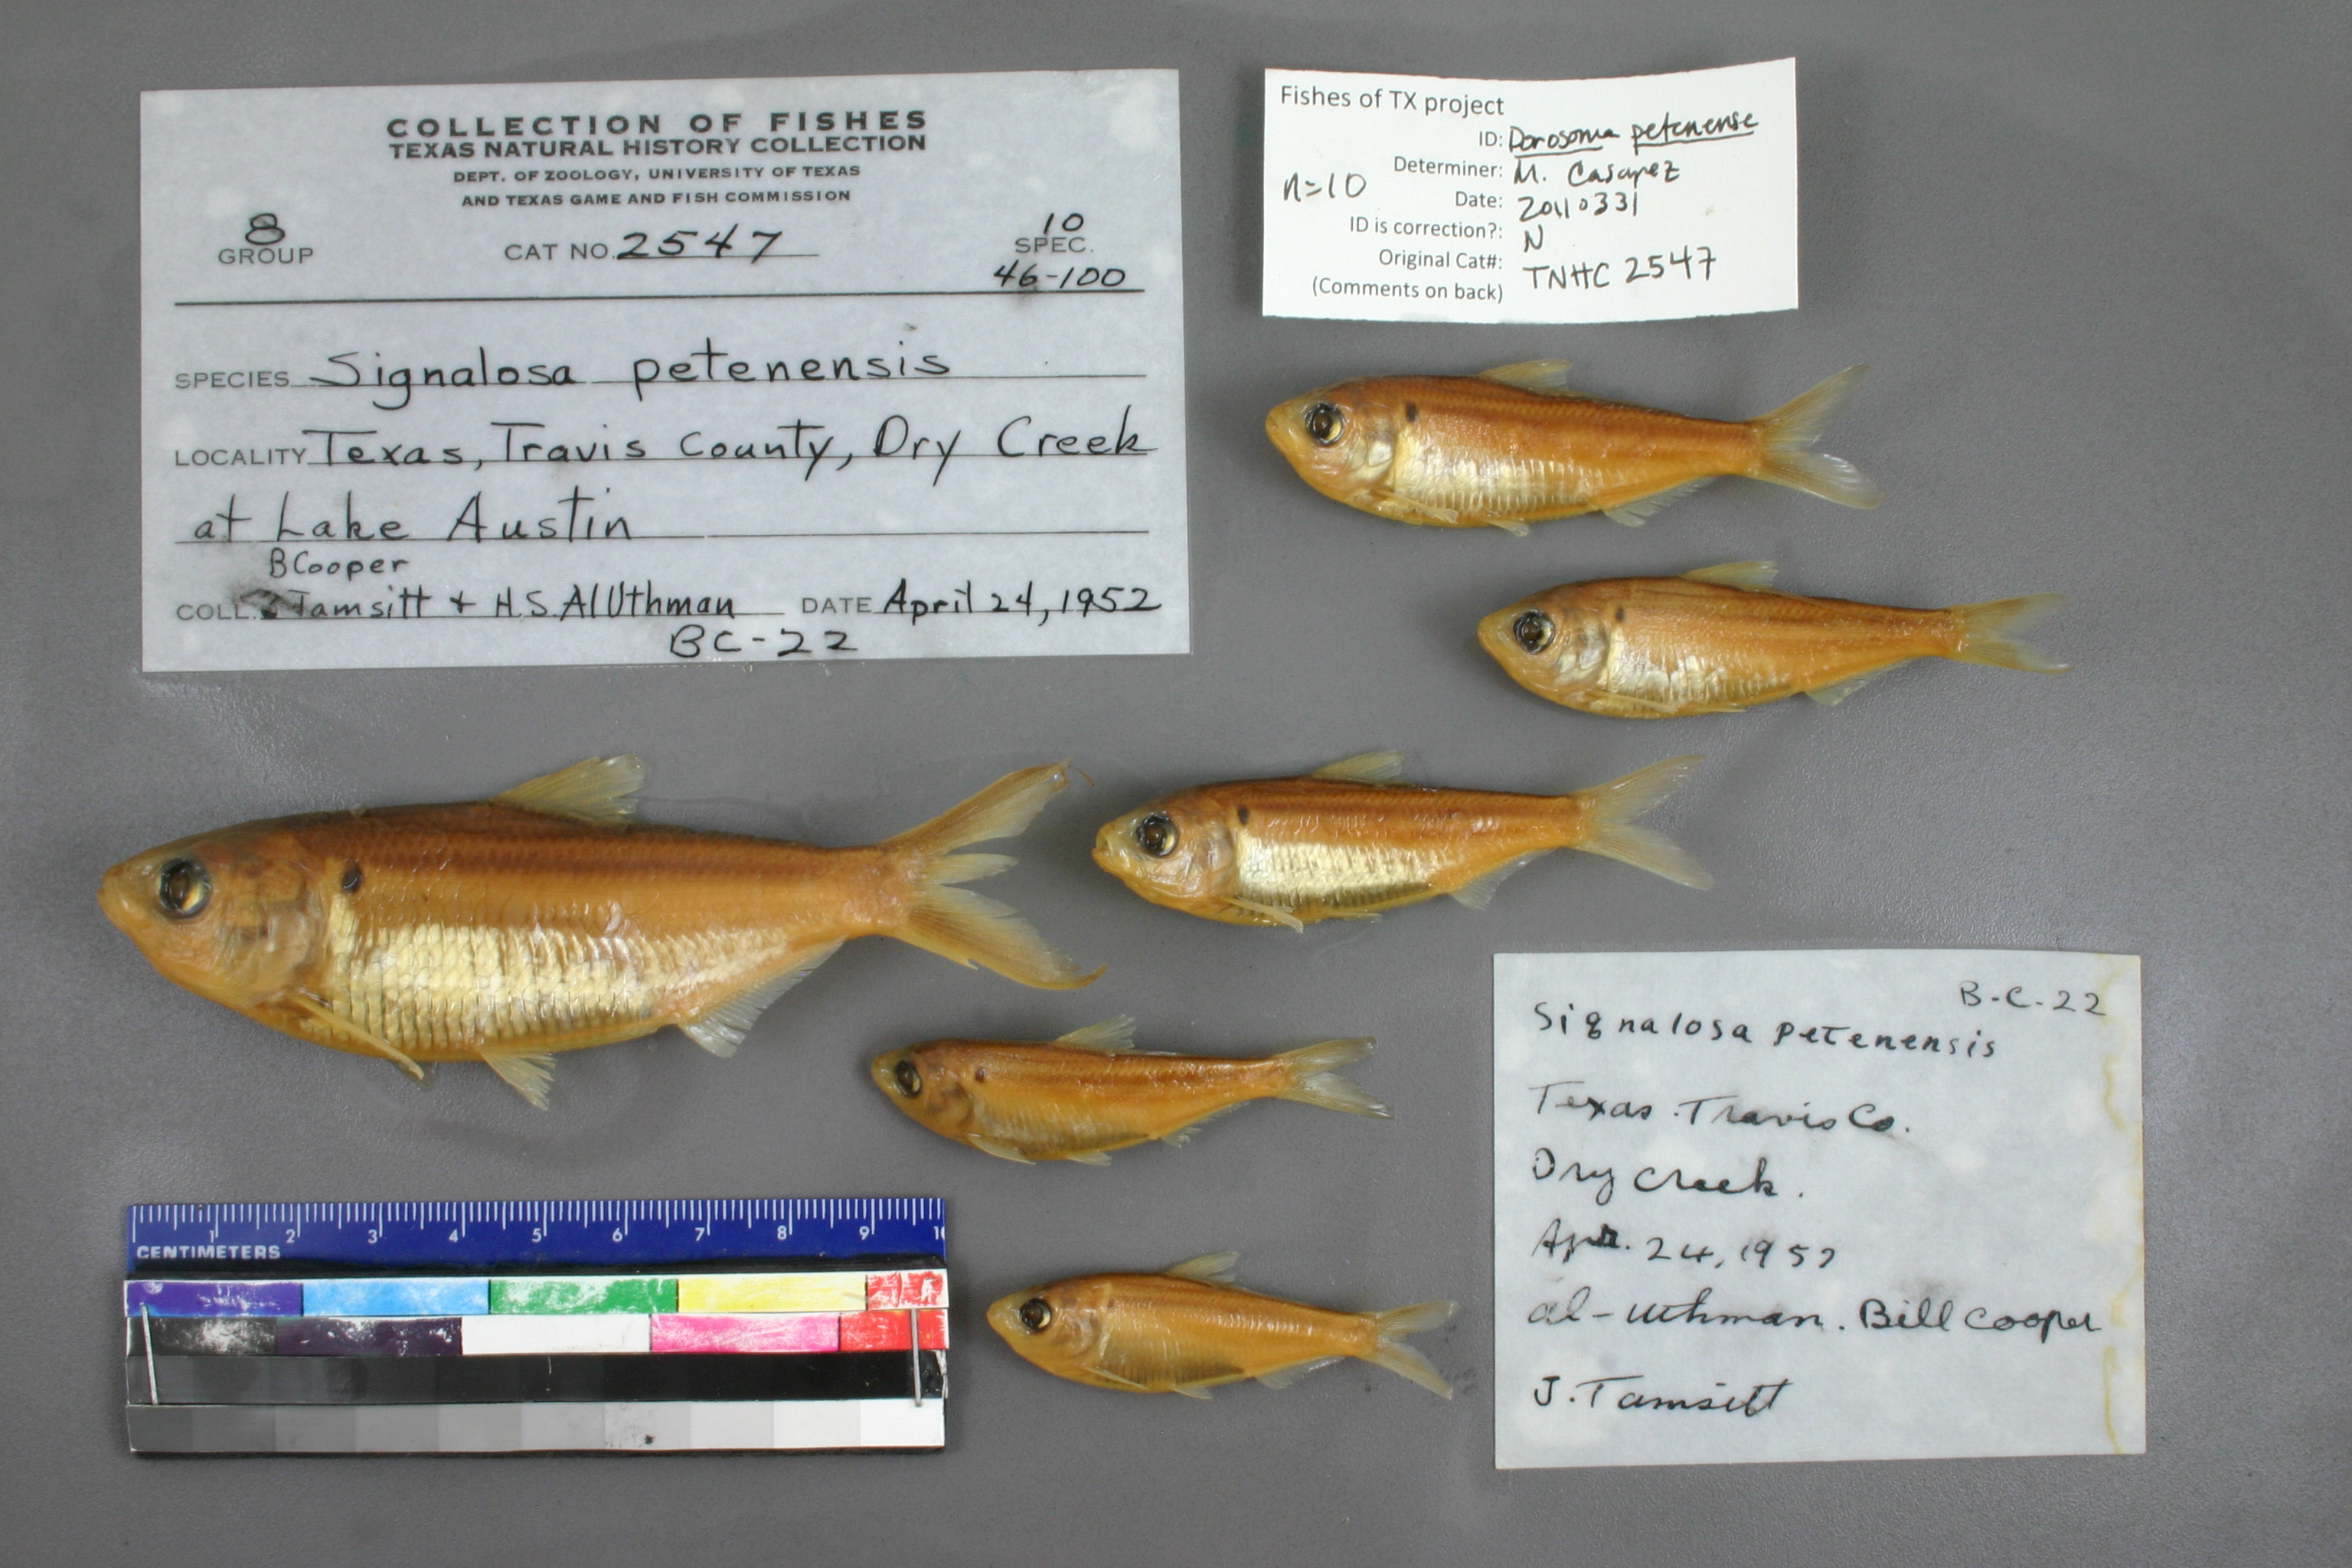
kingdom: Animalia
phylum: Chordata
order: Clupeiformes
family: Clupeidae
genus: Dorosoma
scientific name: Dorosoma petenense
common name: Threadfin shad
